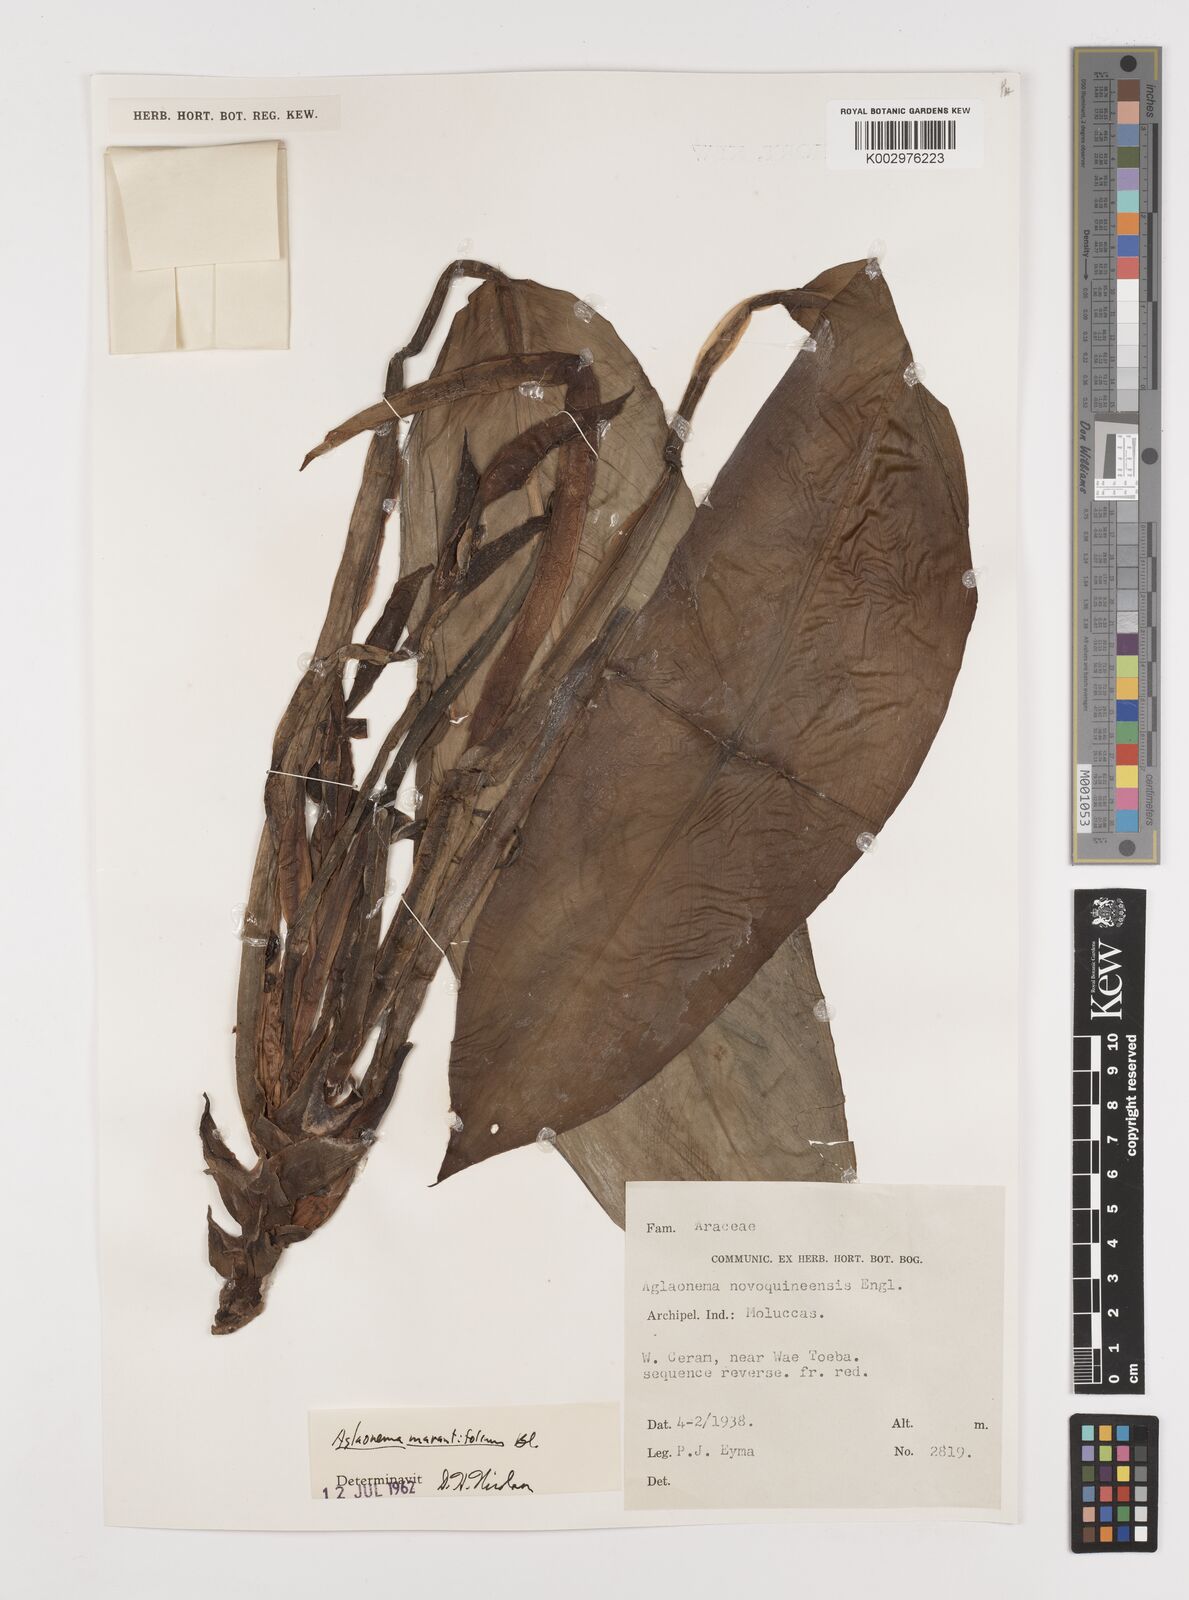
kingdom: Plantae
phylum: Tracheophyta
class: Liliopsida
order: Alismatales
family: Araceae
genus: Aglaonema
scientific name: Aglaonema marantifolium
